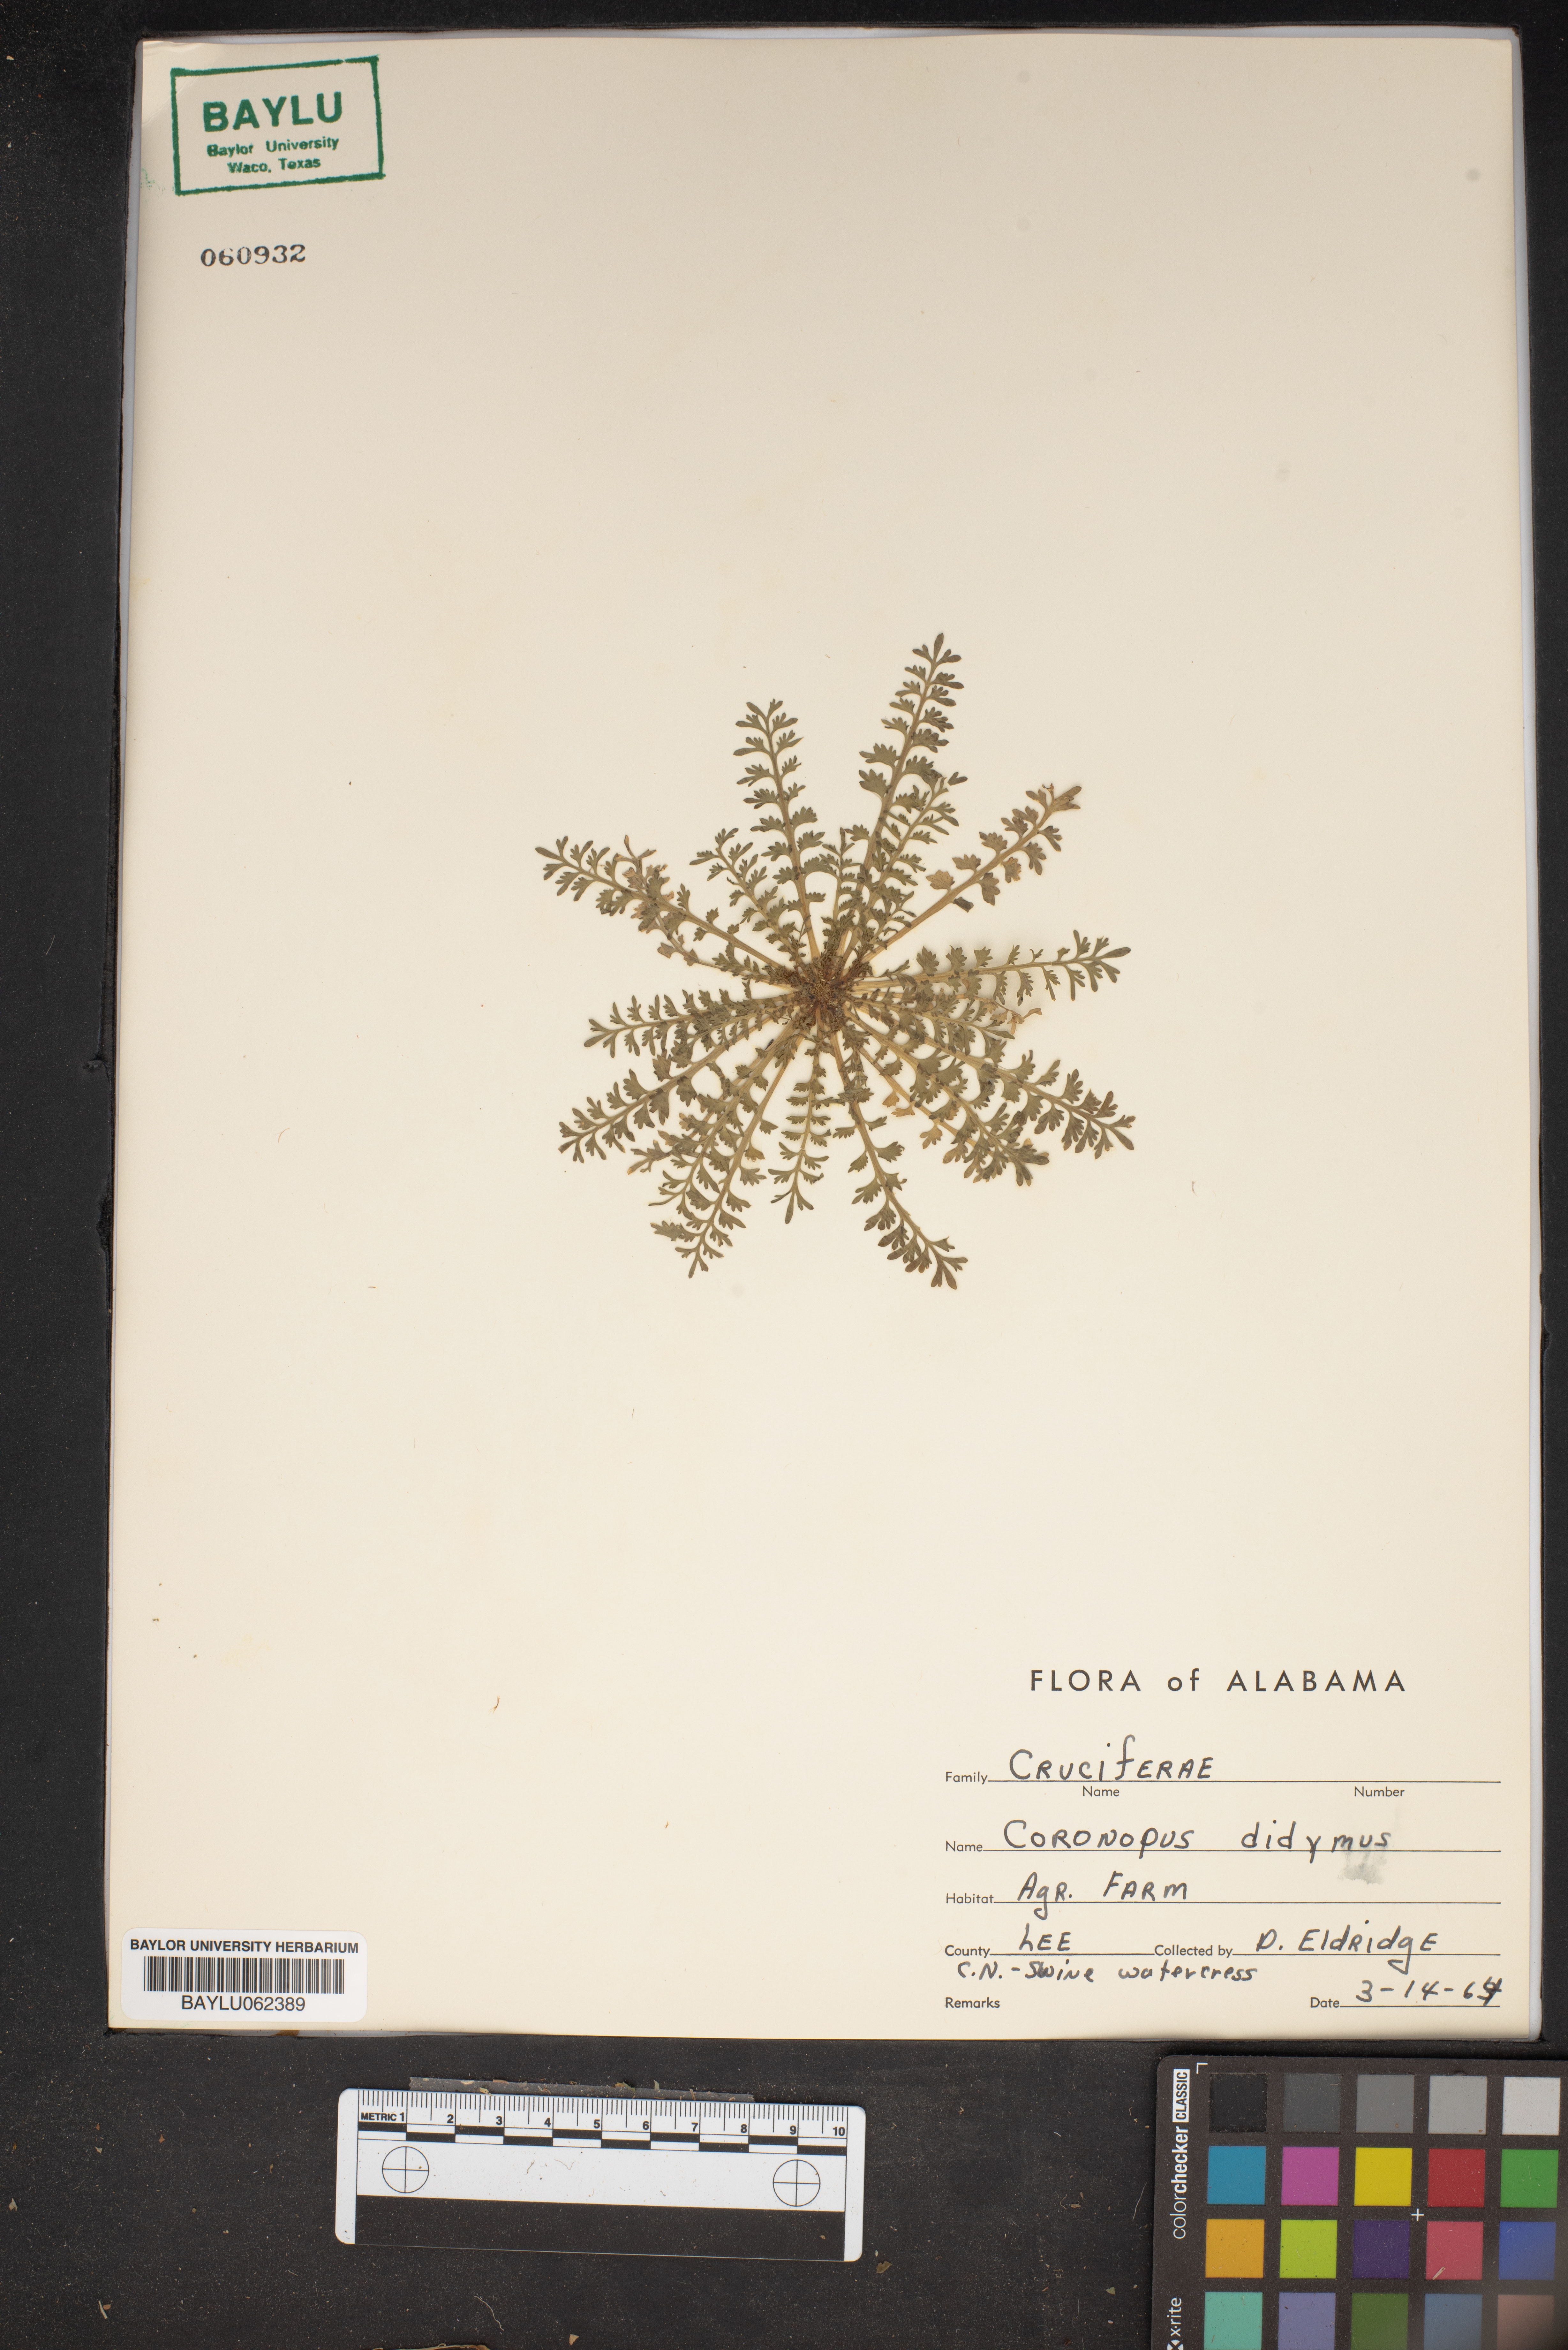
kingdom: Plantae
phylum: Tracheophyta
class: Magnoliopsida
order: Brassicales
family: Brassicaceae
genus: Lepidium
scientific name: Lepidium didymum
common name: Lesser swinecress
